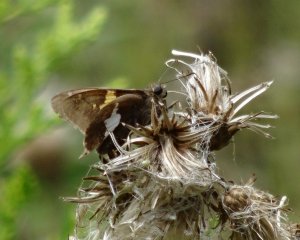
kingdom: Animalia
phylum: Arthropoda
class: Insecta
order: Lepidoptera
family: Hesperiidae
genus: Epargyreus
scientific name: Epargyreus clarus
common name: Silver-spotted Skipper
